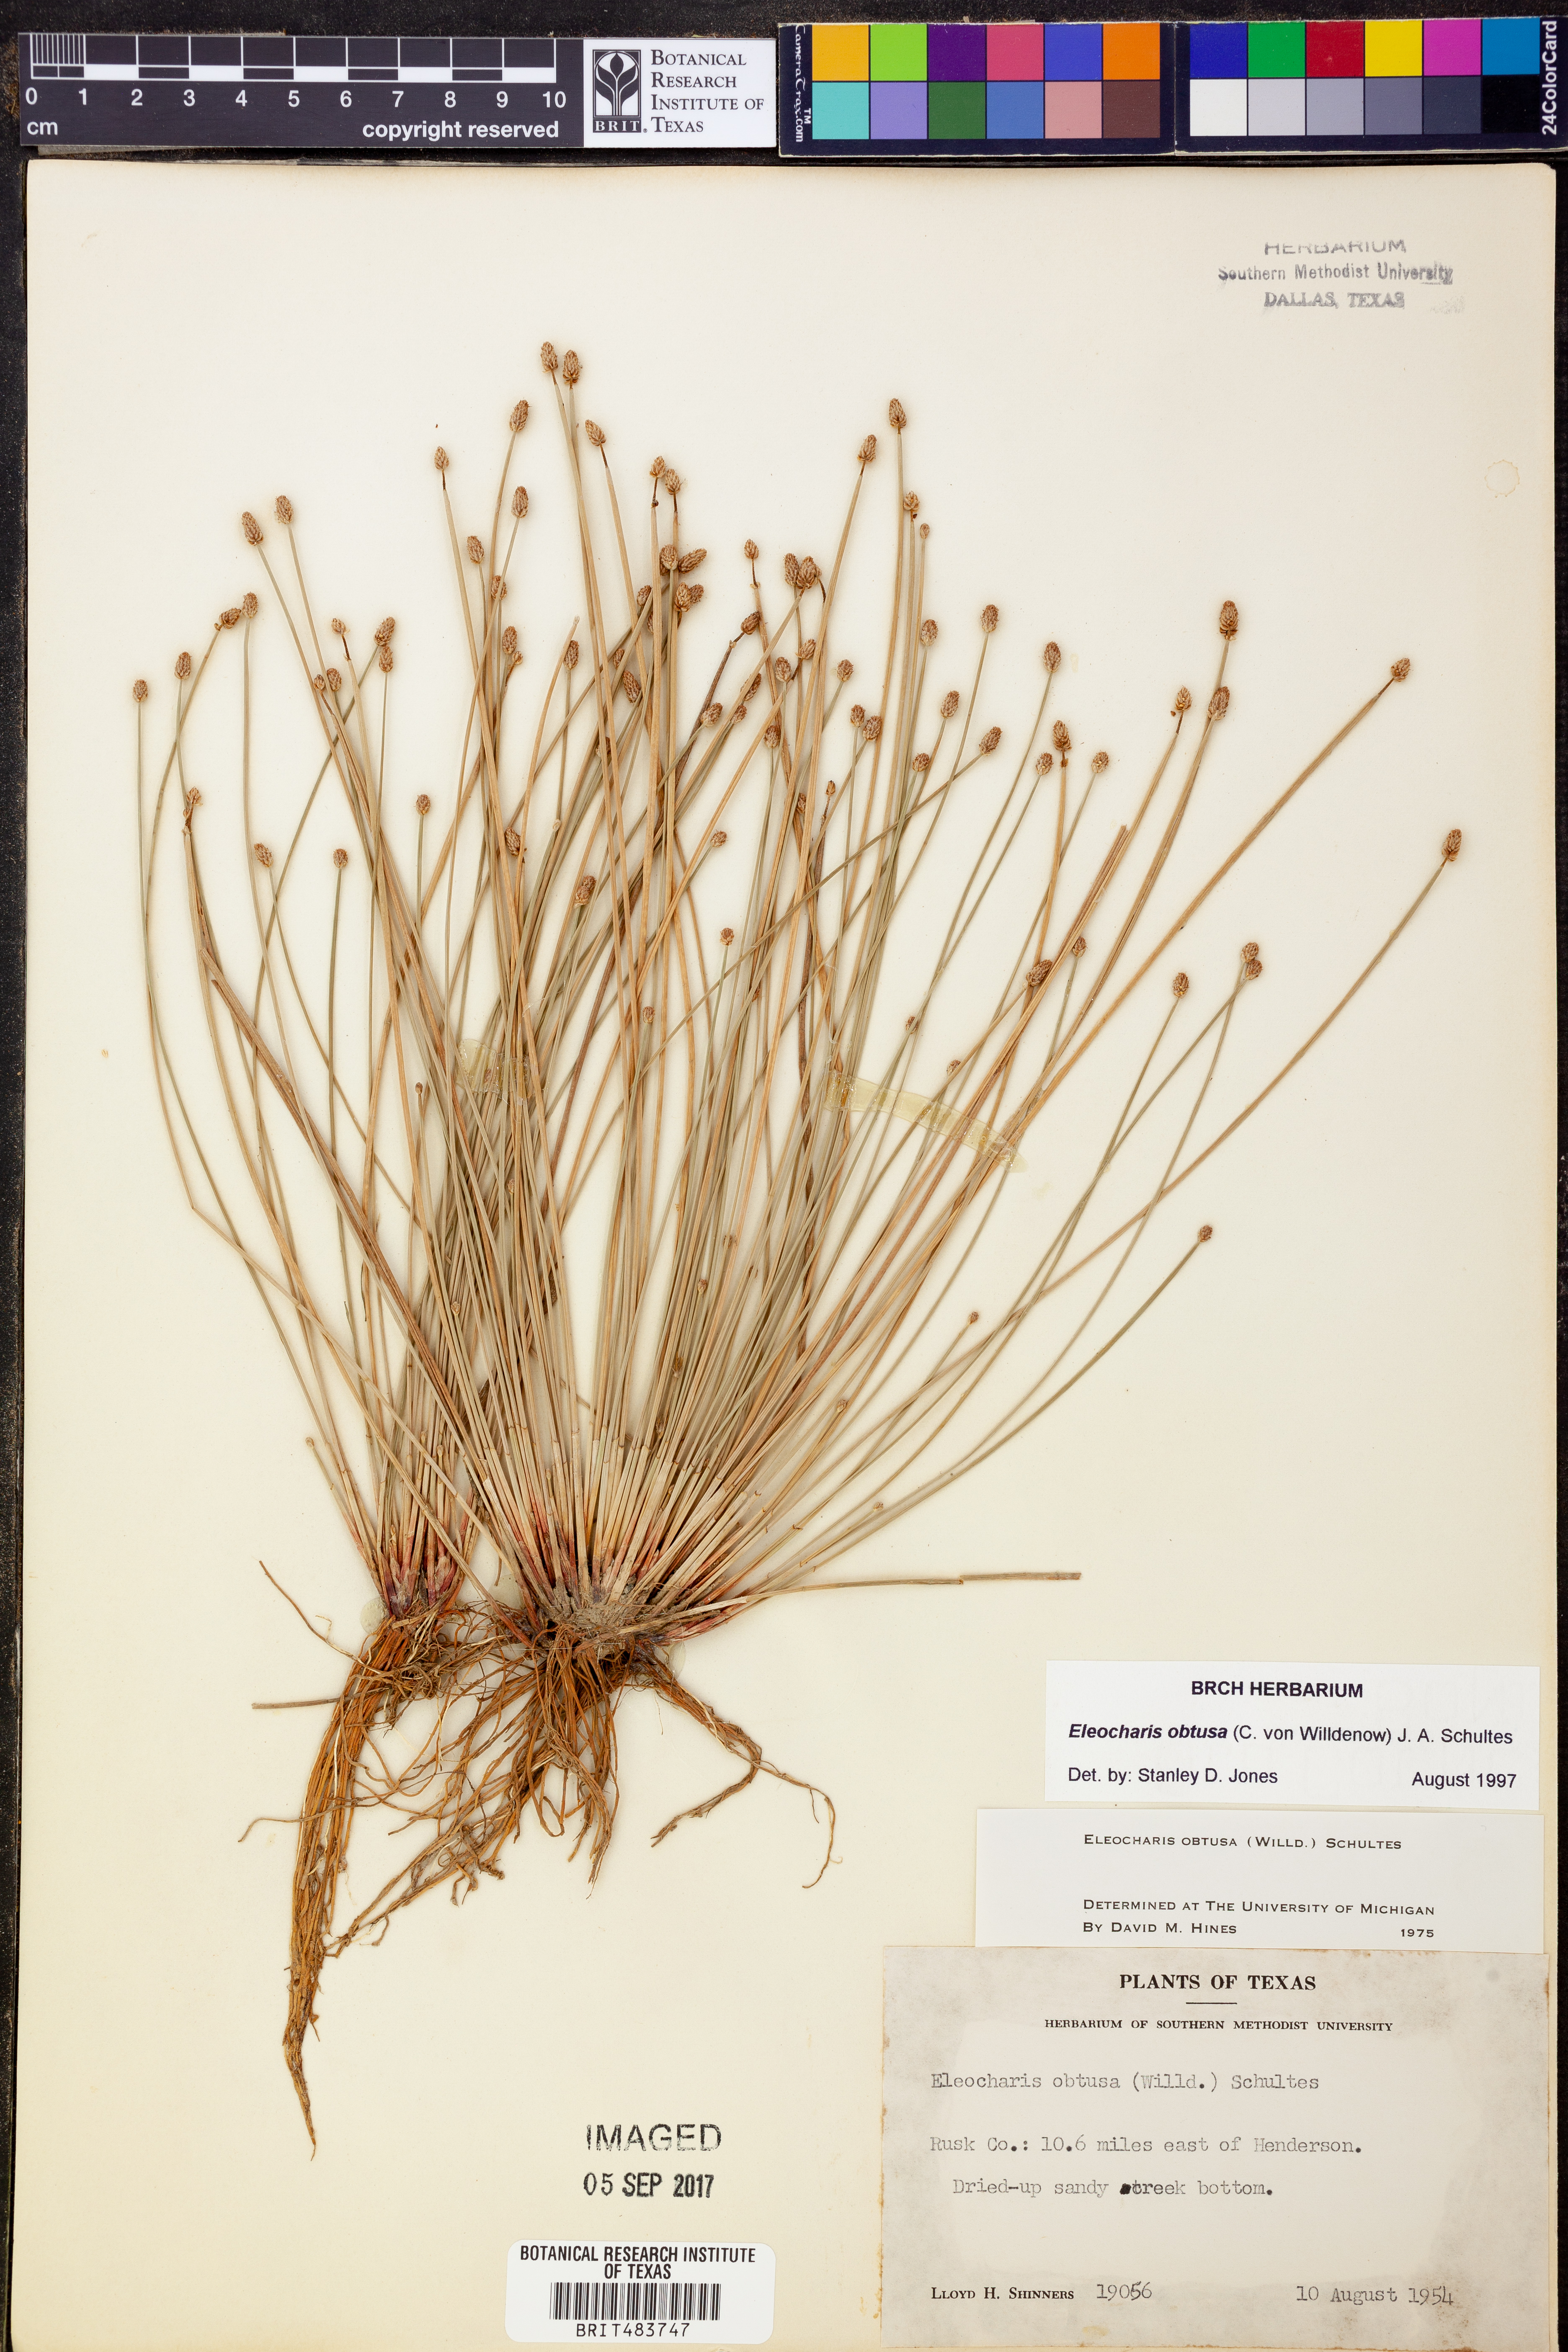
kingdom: Plantae
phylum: Tracheophyta
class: Liliopsida
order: Poales
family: Cyperaceae
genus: Eleocharis
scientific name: Eleocharis obtusa
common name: Blunt spikerush
